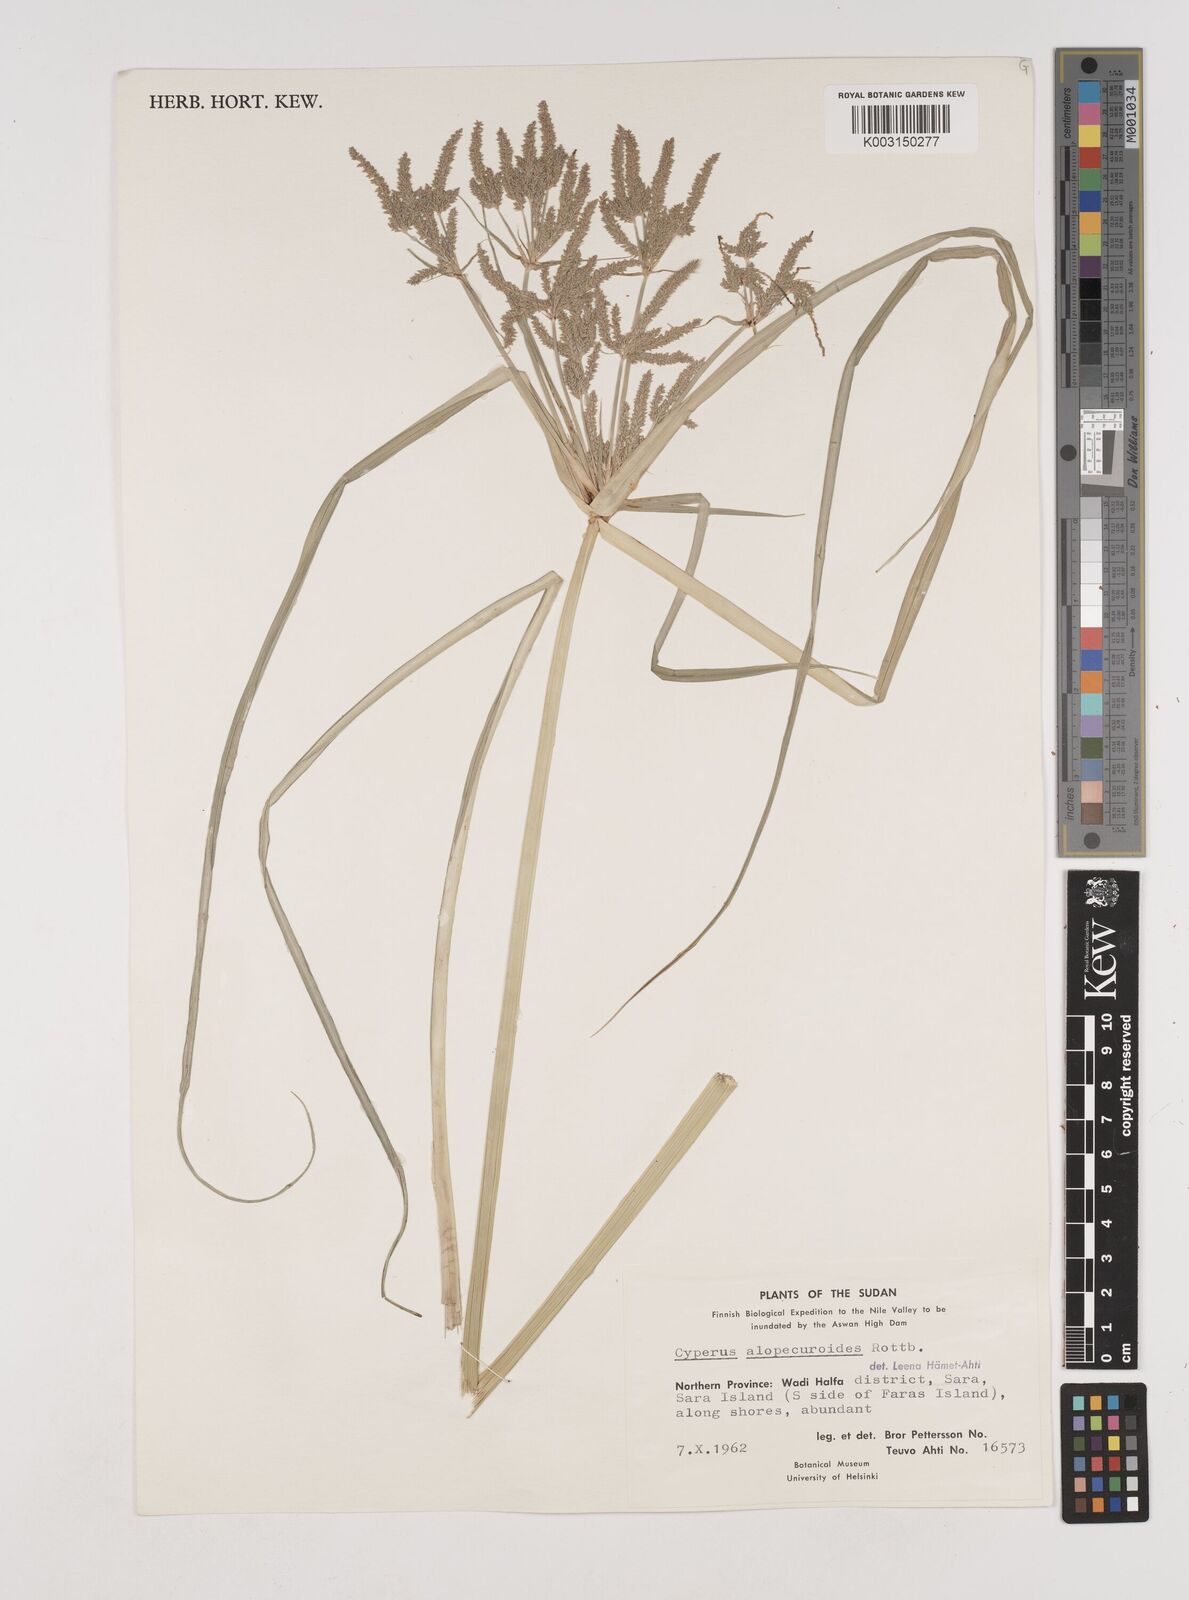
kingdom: Plantae
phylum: Tracheophyta
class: Liliopsida
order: Poales
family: Cyperaceae
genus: Cyperus
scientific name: Cyperus alopecuroides
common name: Foxtail flatsedge
